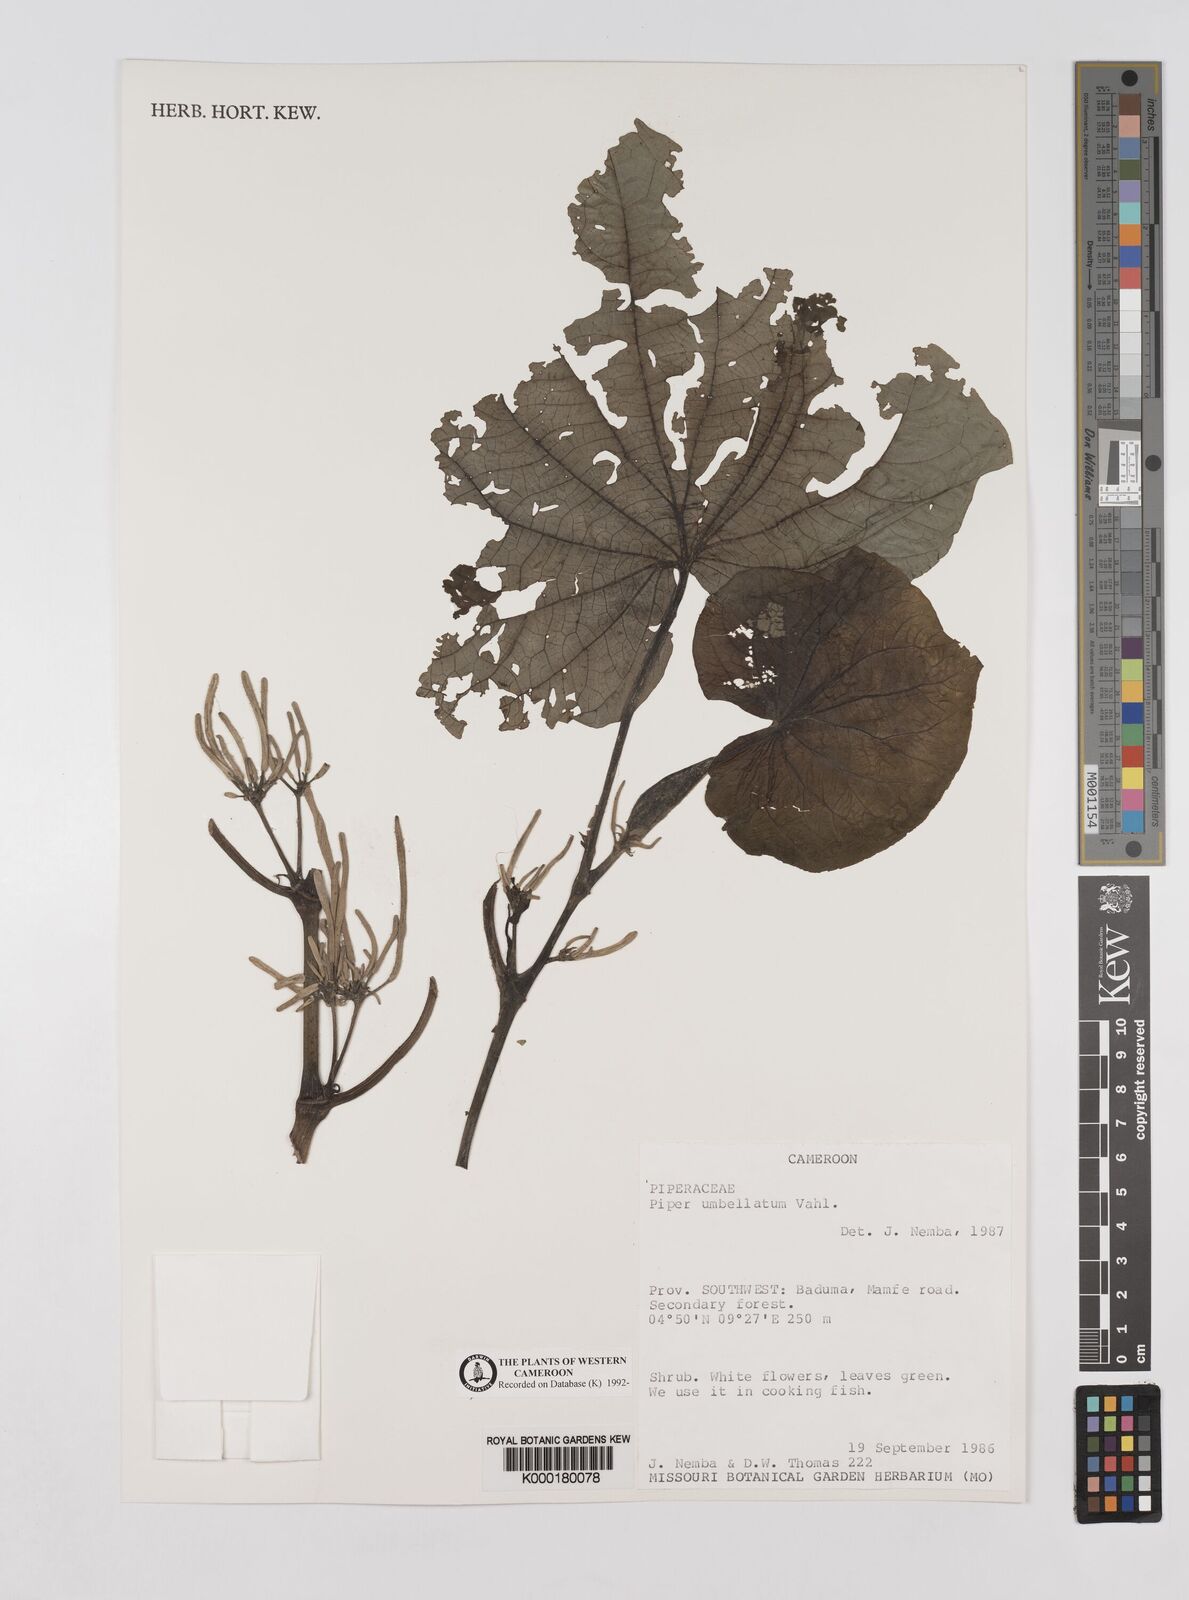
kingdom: Plantae
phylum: Tracheophyta
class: Magnoliopsida
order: Piperales
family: Piperaceae
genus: Piper
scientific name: Piper umbellatum
